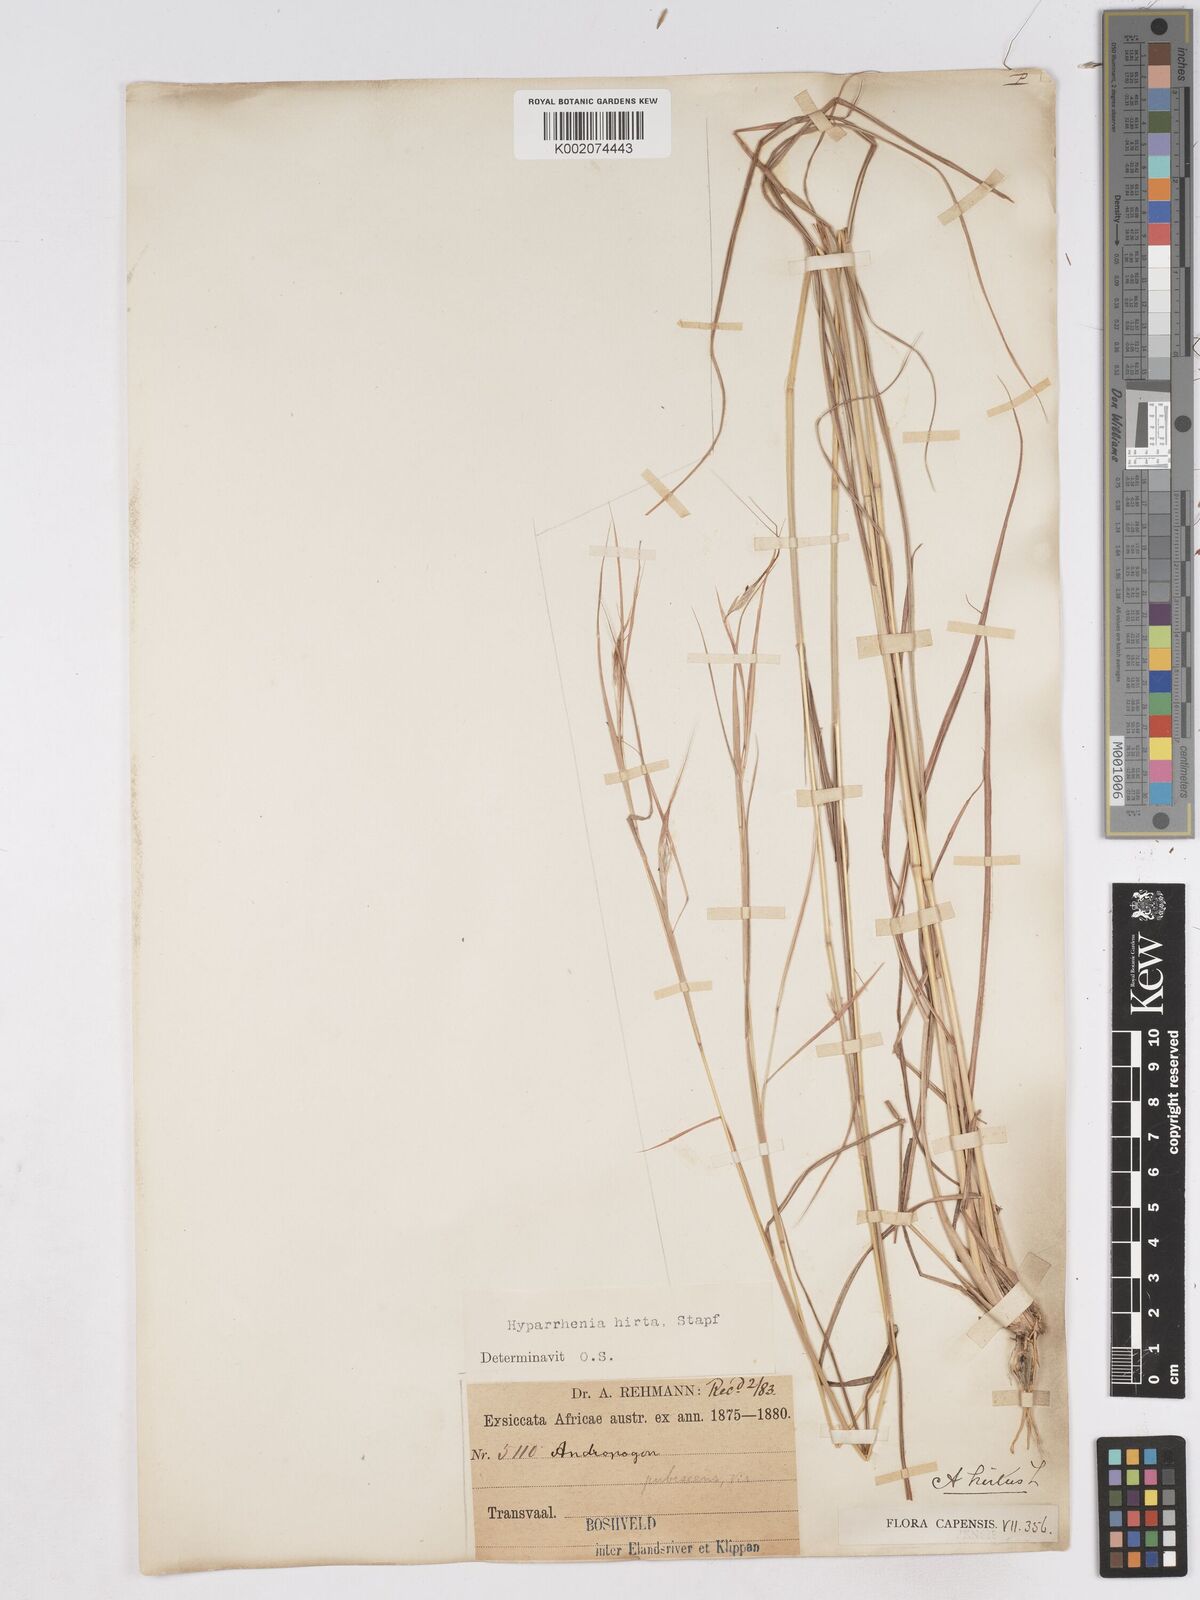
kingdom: Plantae
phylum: Tracheophyta
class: Liliopsida
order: Poales
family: Poaceae
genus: Hyparrhenia
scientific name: Hyparrhenia hirta
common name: Thatching grass
